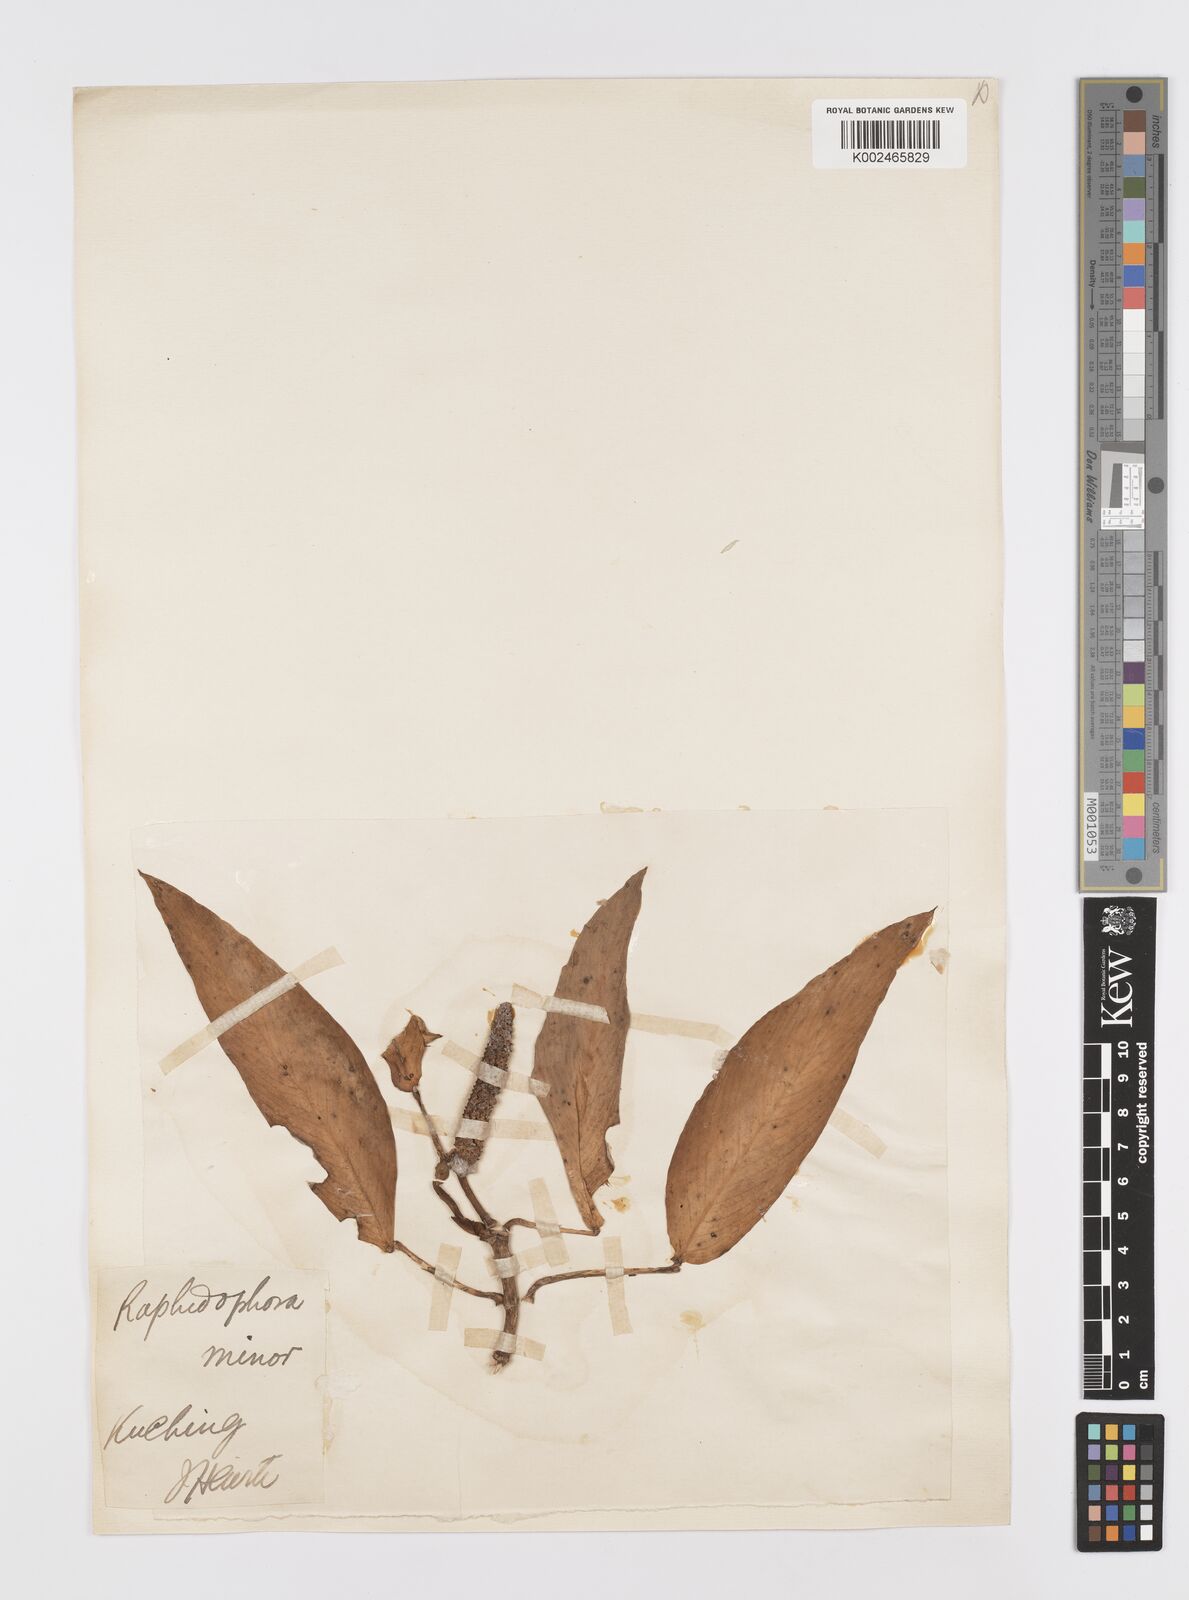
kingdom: Plantae
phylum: Tracheophyta
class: Liliopsida
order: Alismatales
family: Araceae
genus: Rhaphidophora
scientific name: Rhaphidophora minor
